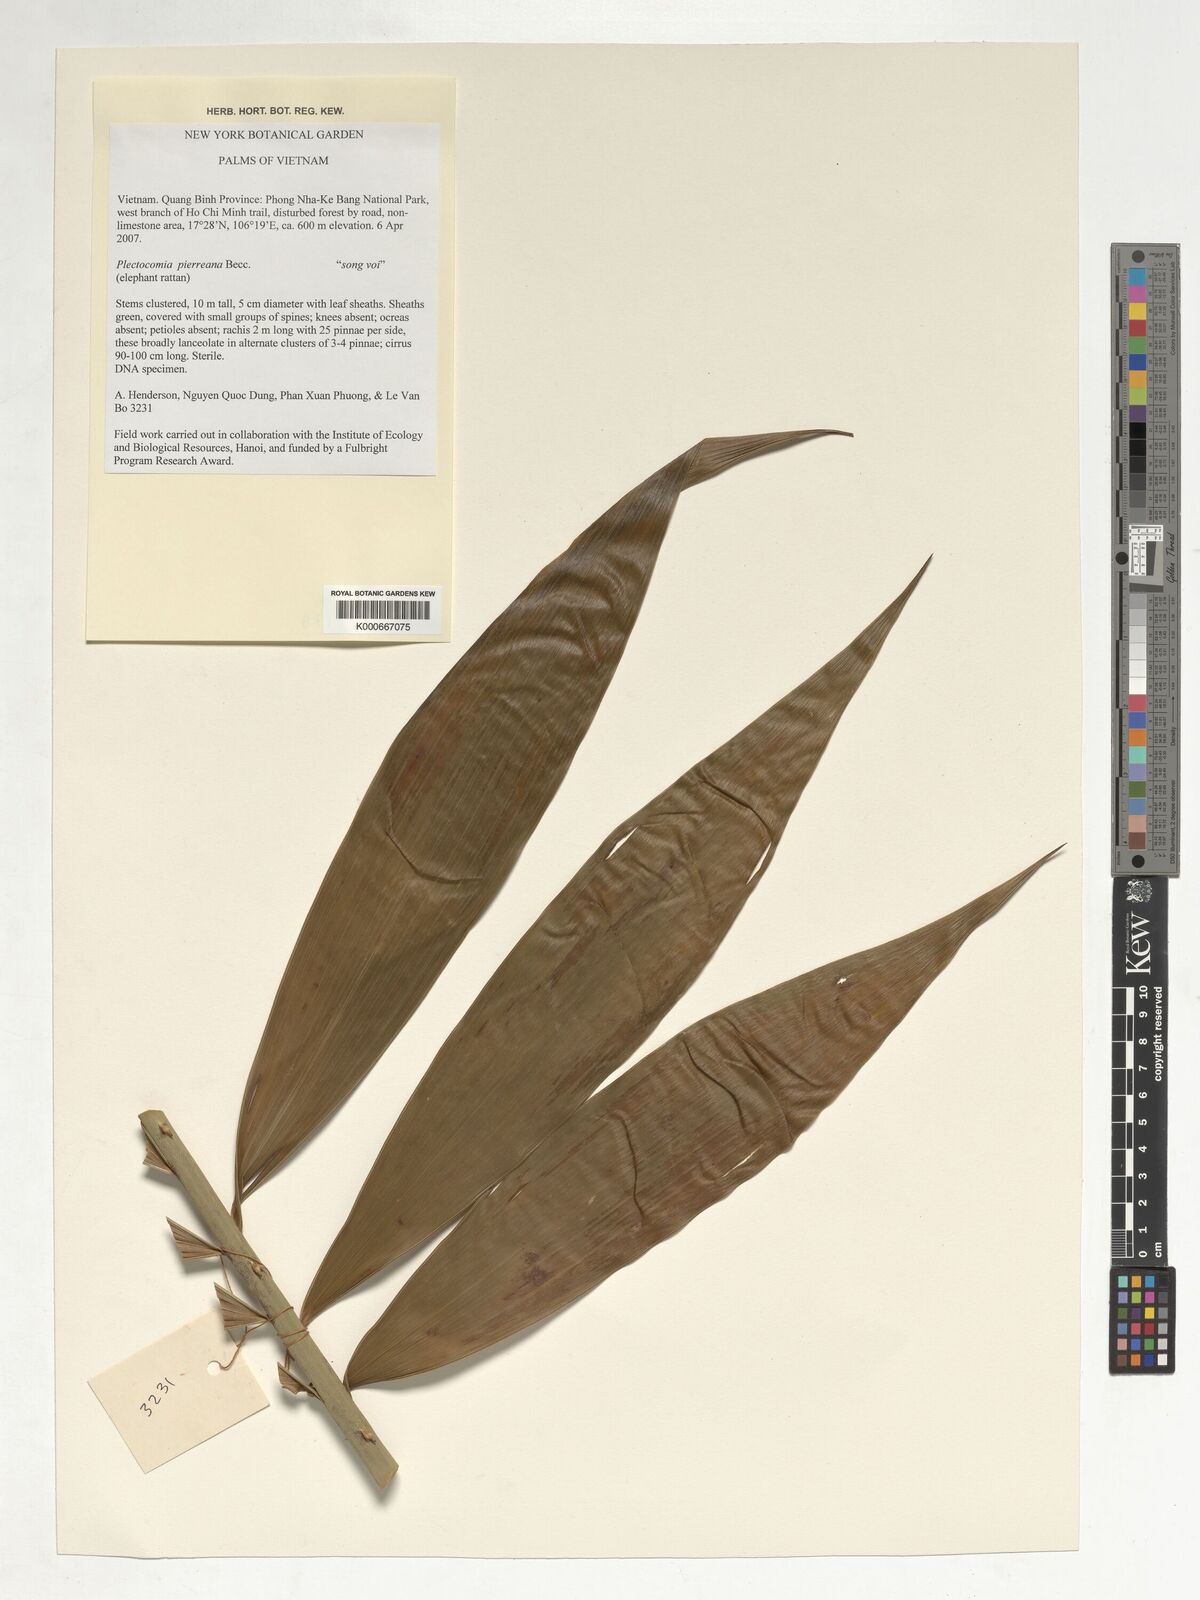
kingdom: Plantae
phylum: Tracheophyta
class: Liliopsida
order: Arecales
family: Arecaceae
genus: Plectocomia
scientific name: Plectocomia pierreana
